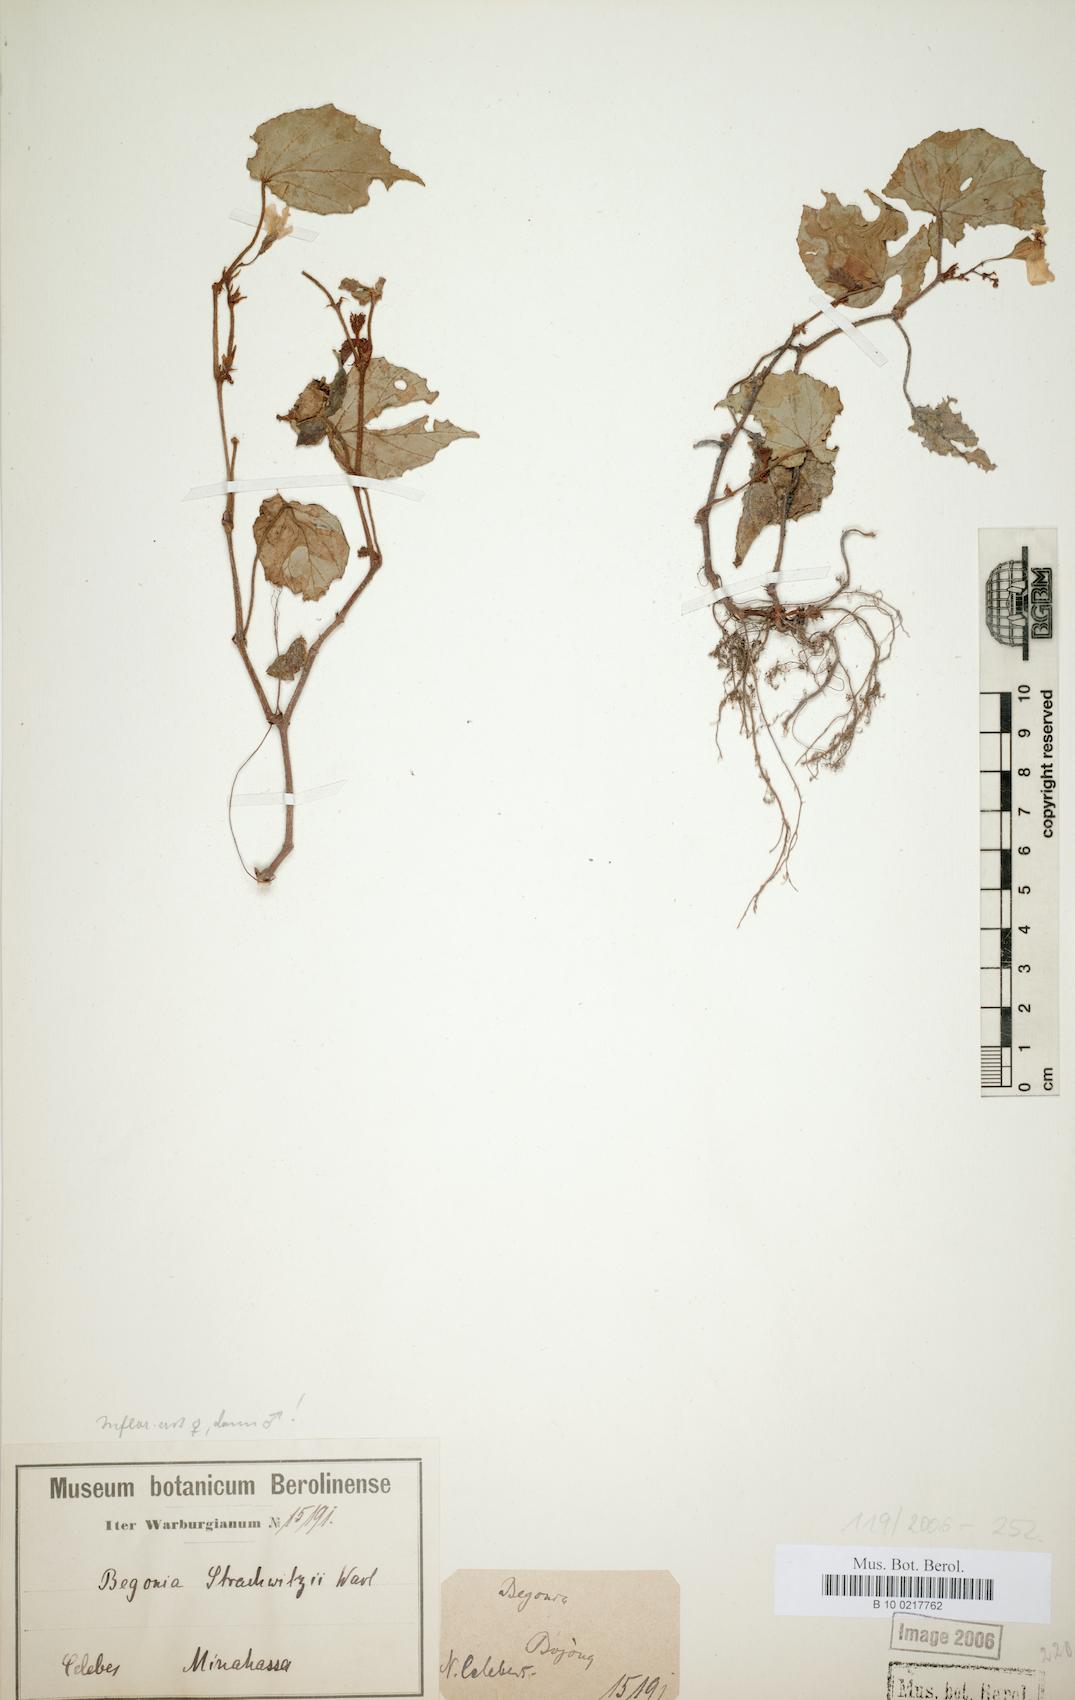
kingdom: Plantae
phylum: Tracheophyta
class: Magnoliopsida
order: Cucurbitales
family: Begoniaceae
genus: Begonia
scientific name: Begonia strachwitzii
